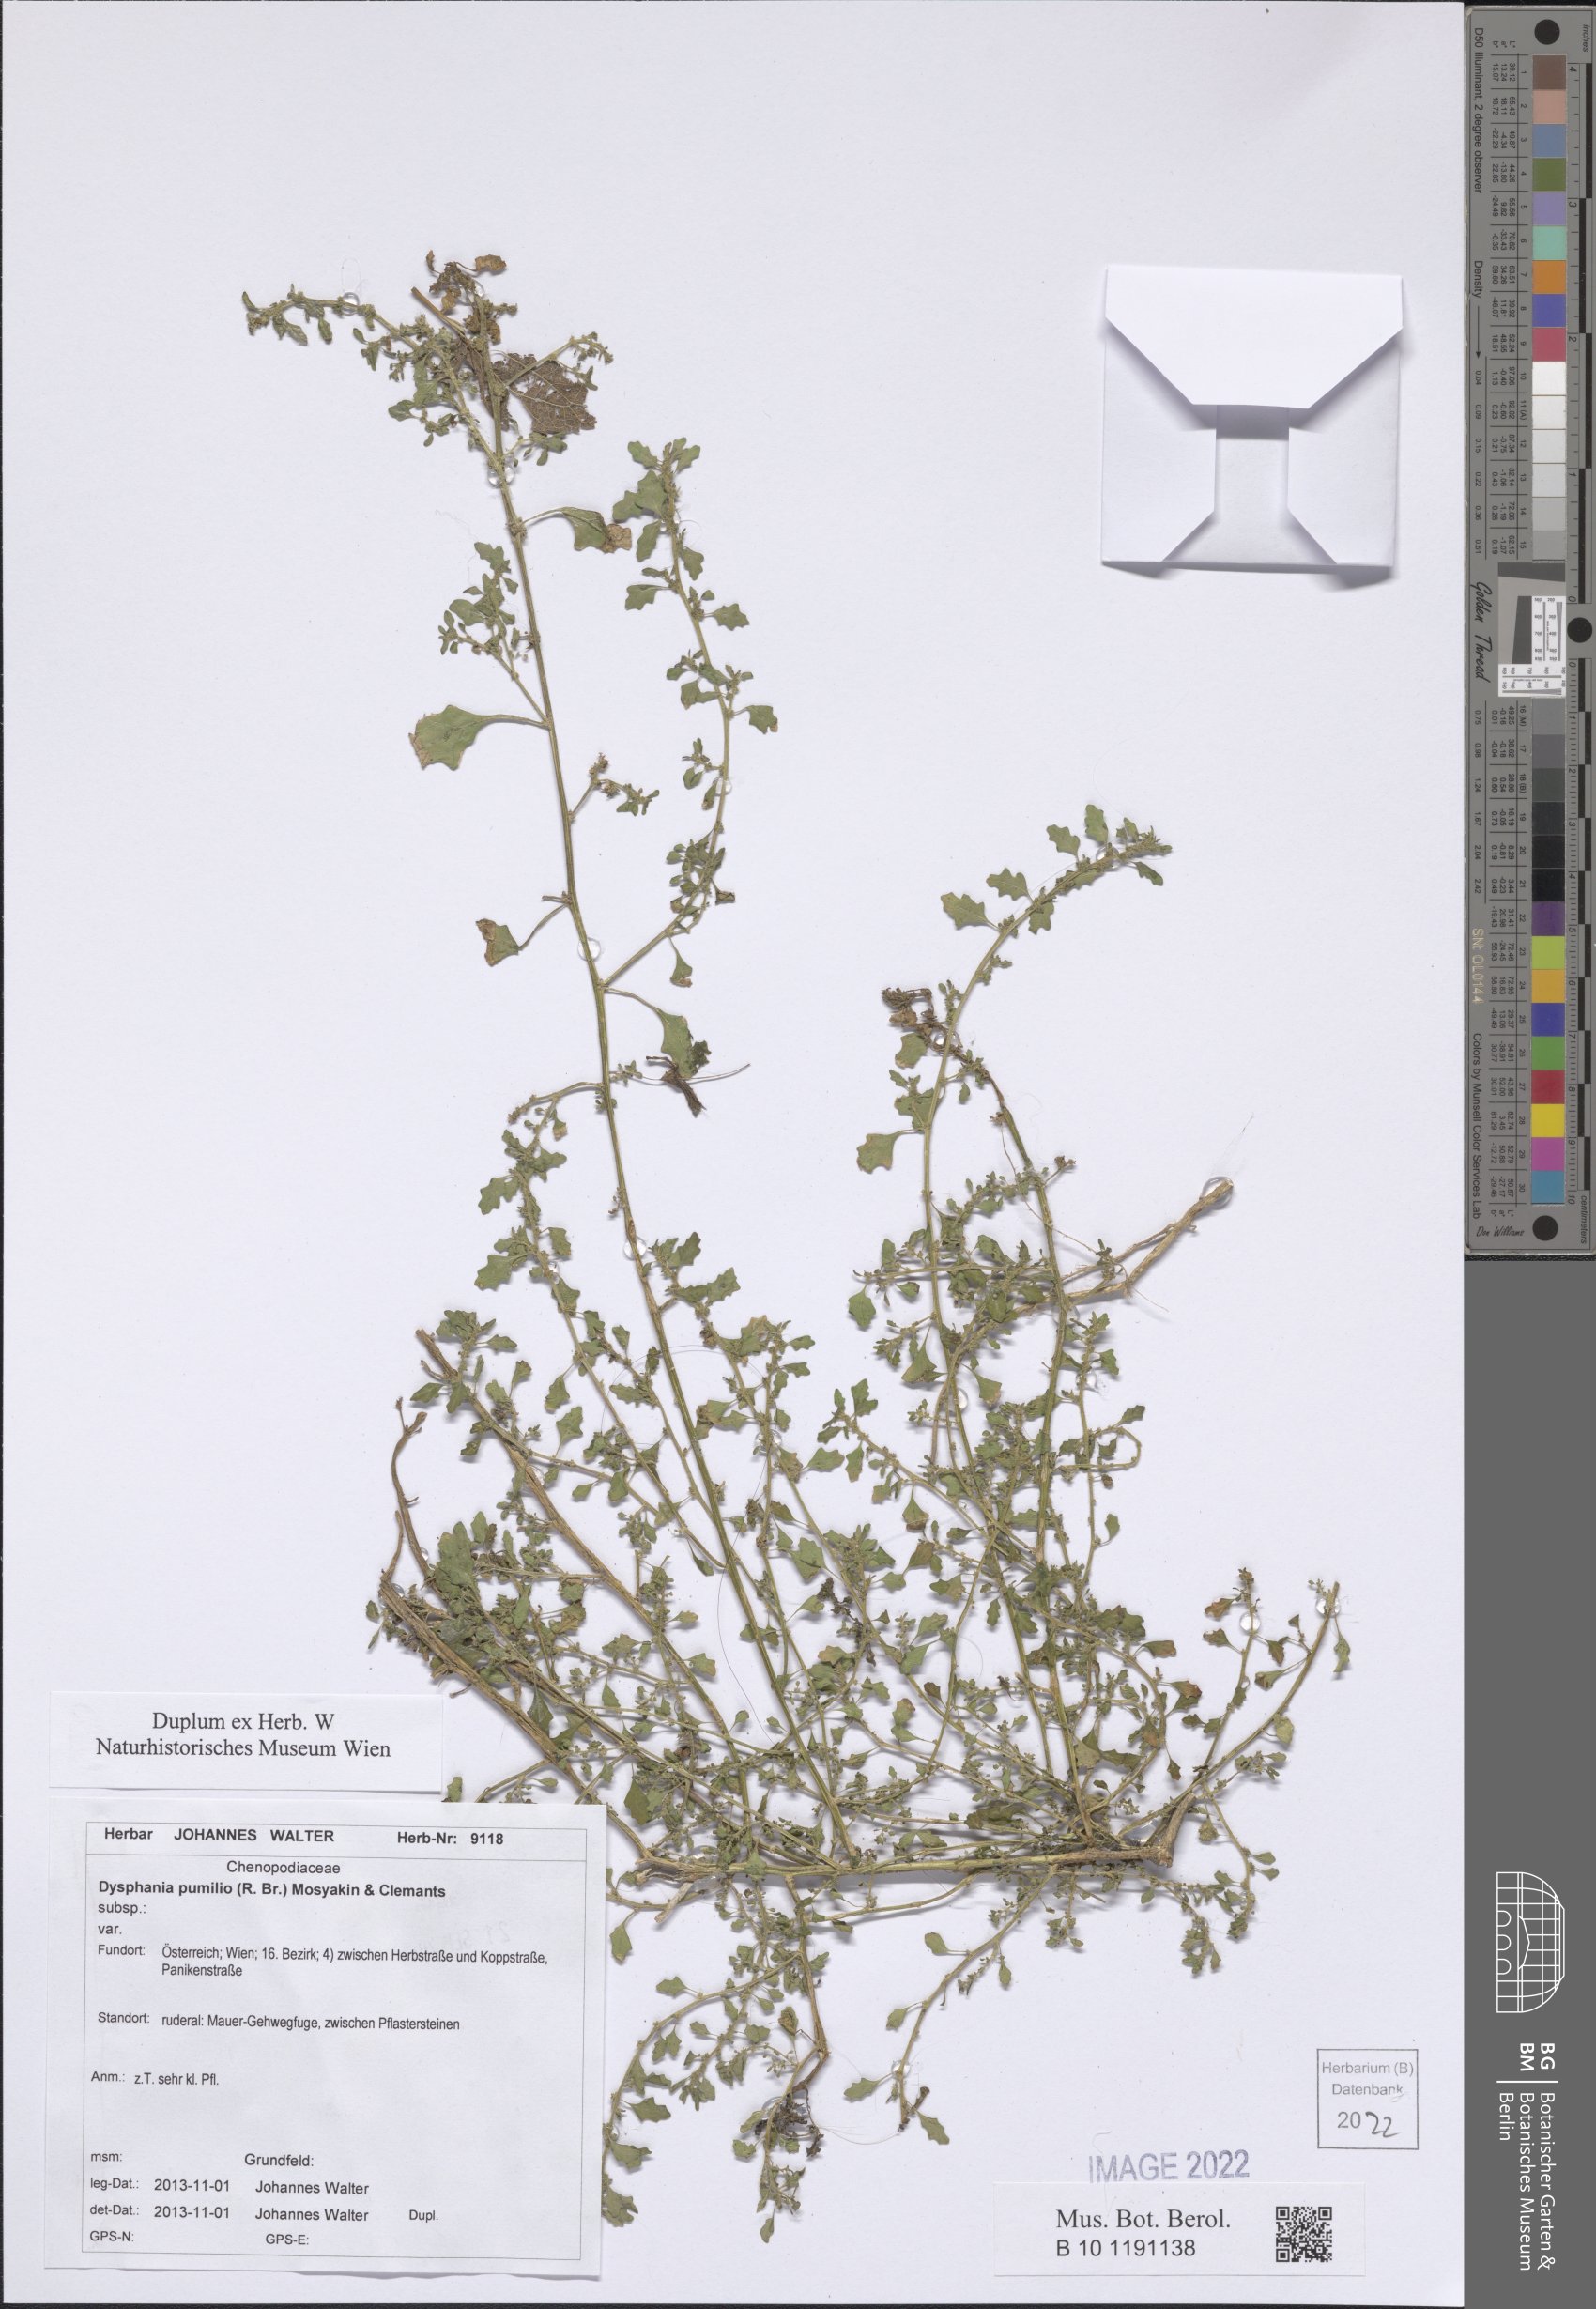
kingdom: Plantae
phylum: Tracheophyta
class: Magnoliopsida
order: Caryophyllales
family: Amaranthaceae
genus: Dysphania
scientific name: Dysphania pumilio
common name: Clammy goosefoot
